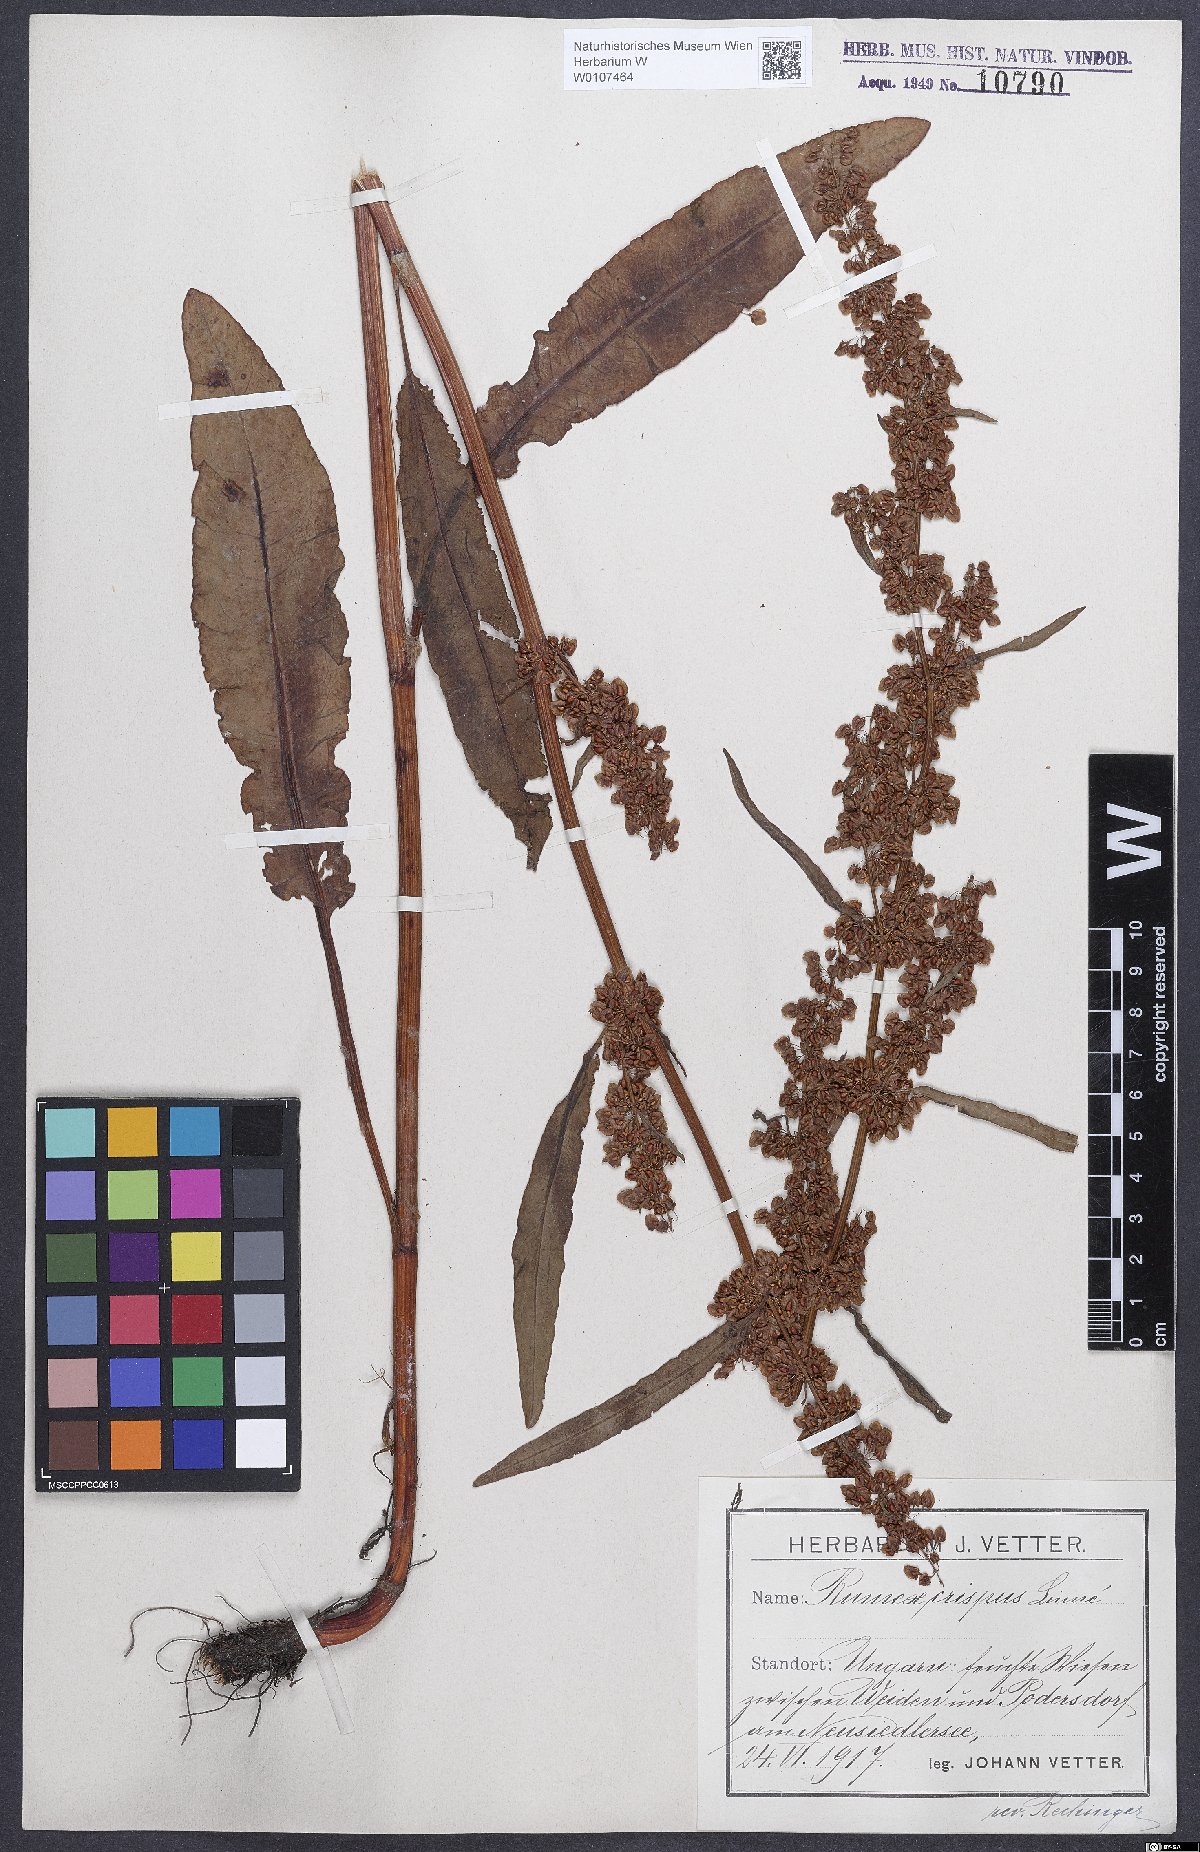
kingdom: Plantae
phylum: Tracheophyta
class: Magnoliopsida
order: Caryophyllales
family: Polygonaceae
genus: Rumex
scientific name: Rumex crispus
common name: Curled dock
